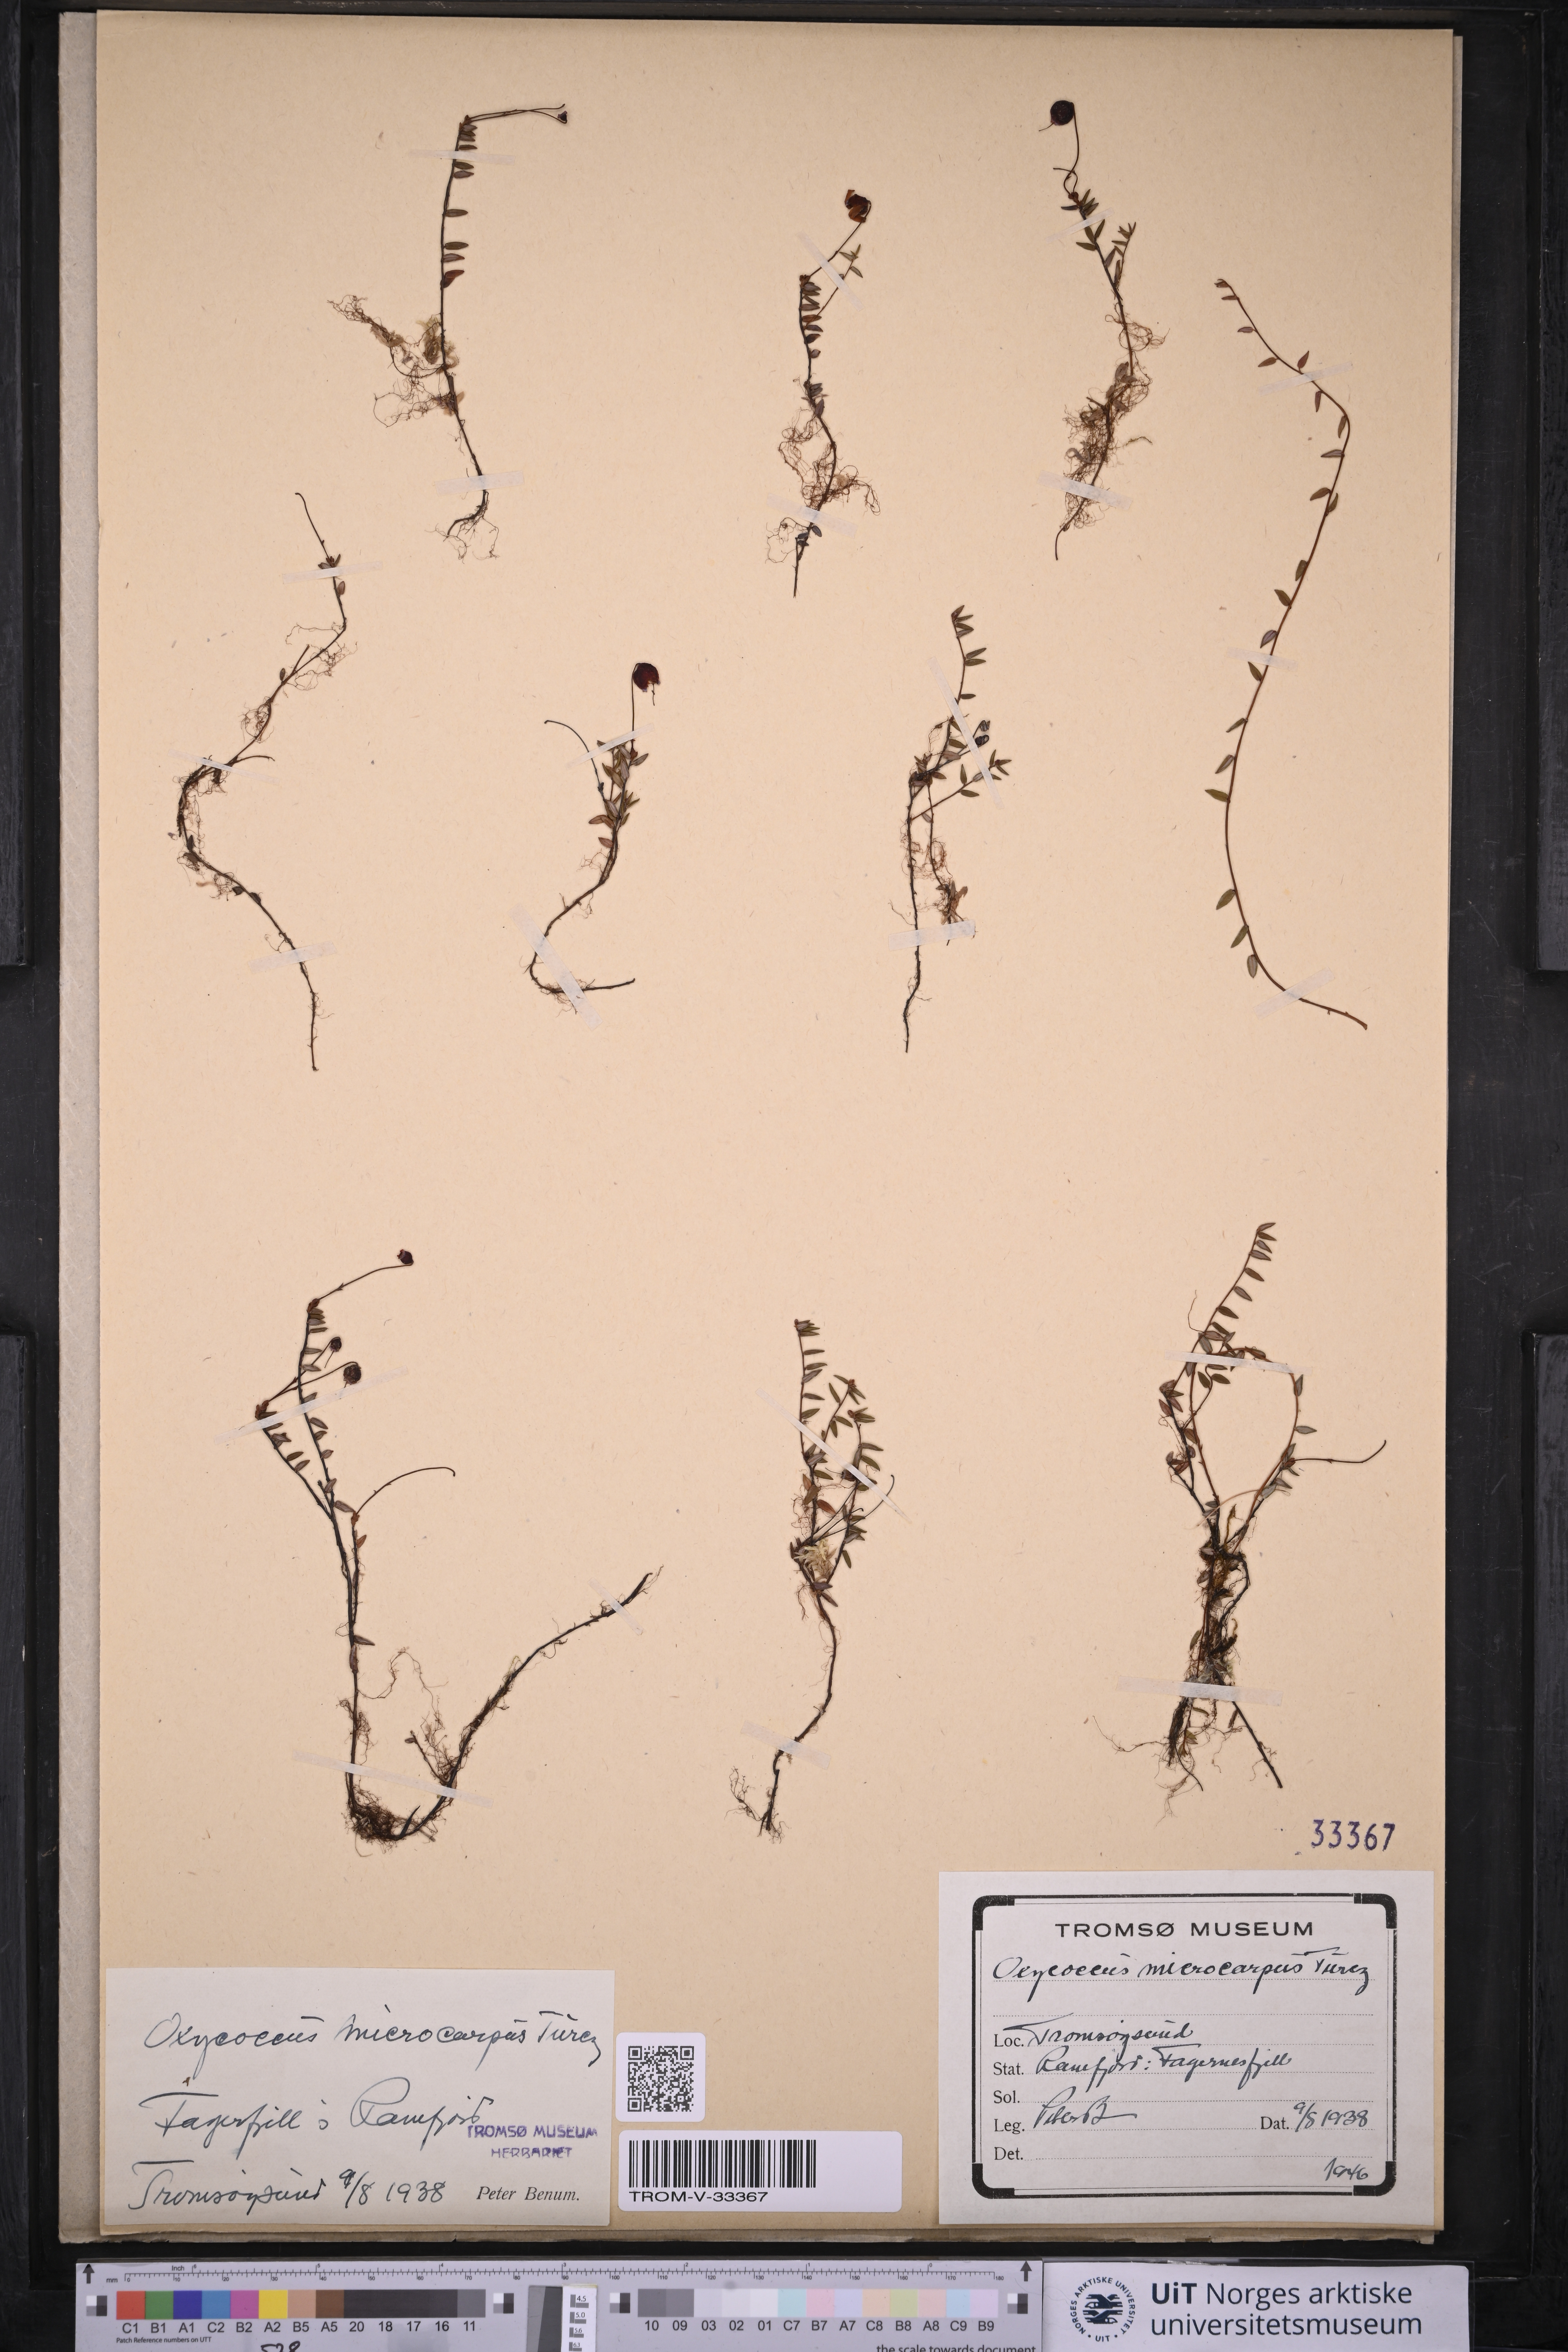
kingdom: Plantae
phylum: Tracheophyta
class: Magnoliopsida
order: Ericales
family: Ericaceae
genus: Vaccinium
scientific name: Vaccinium microcarpum
